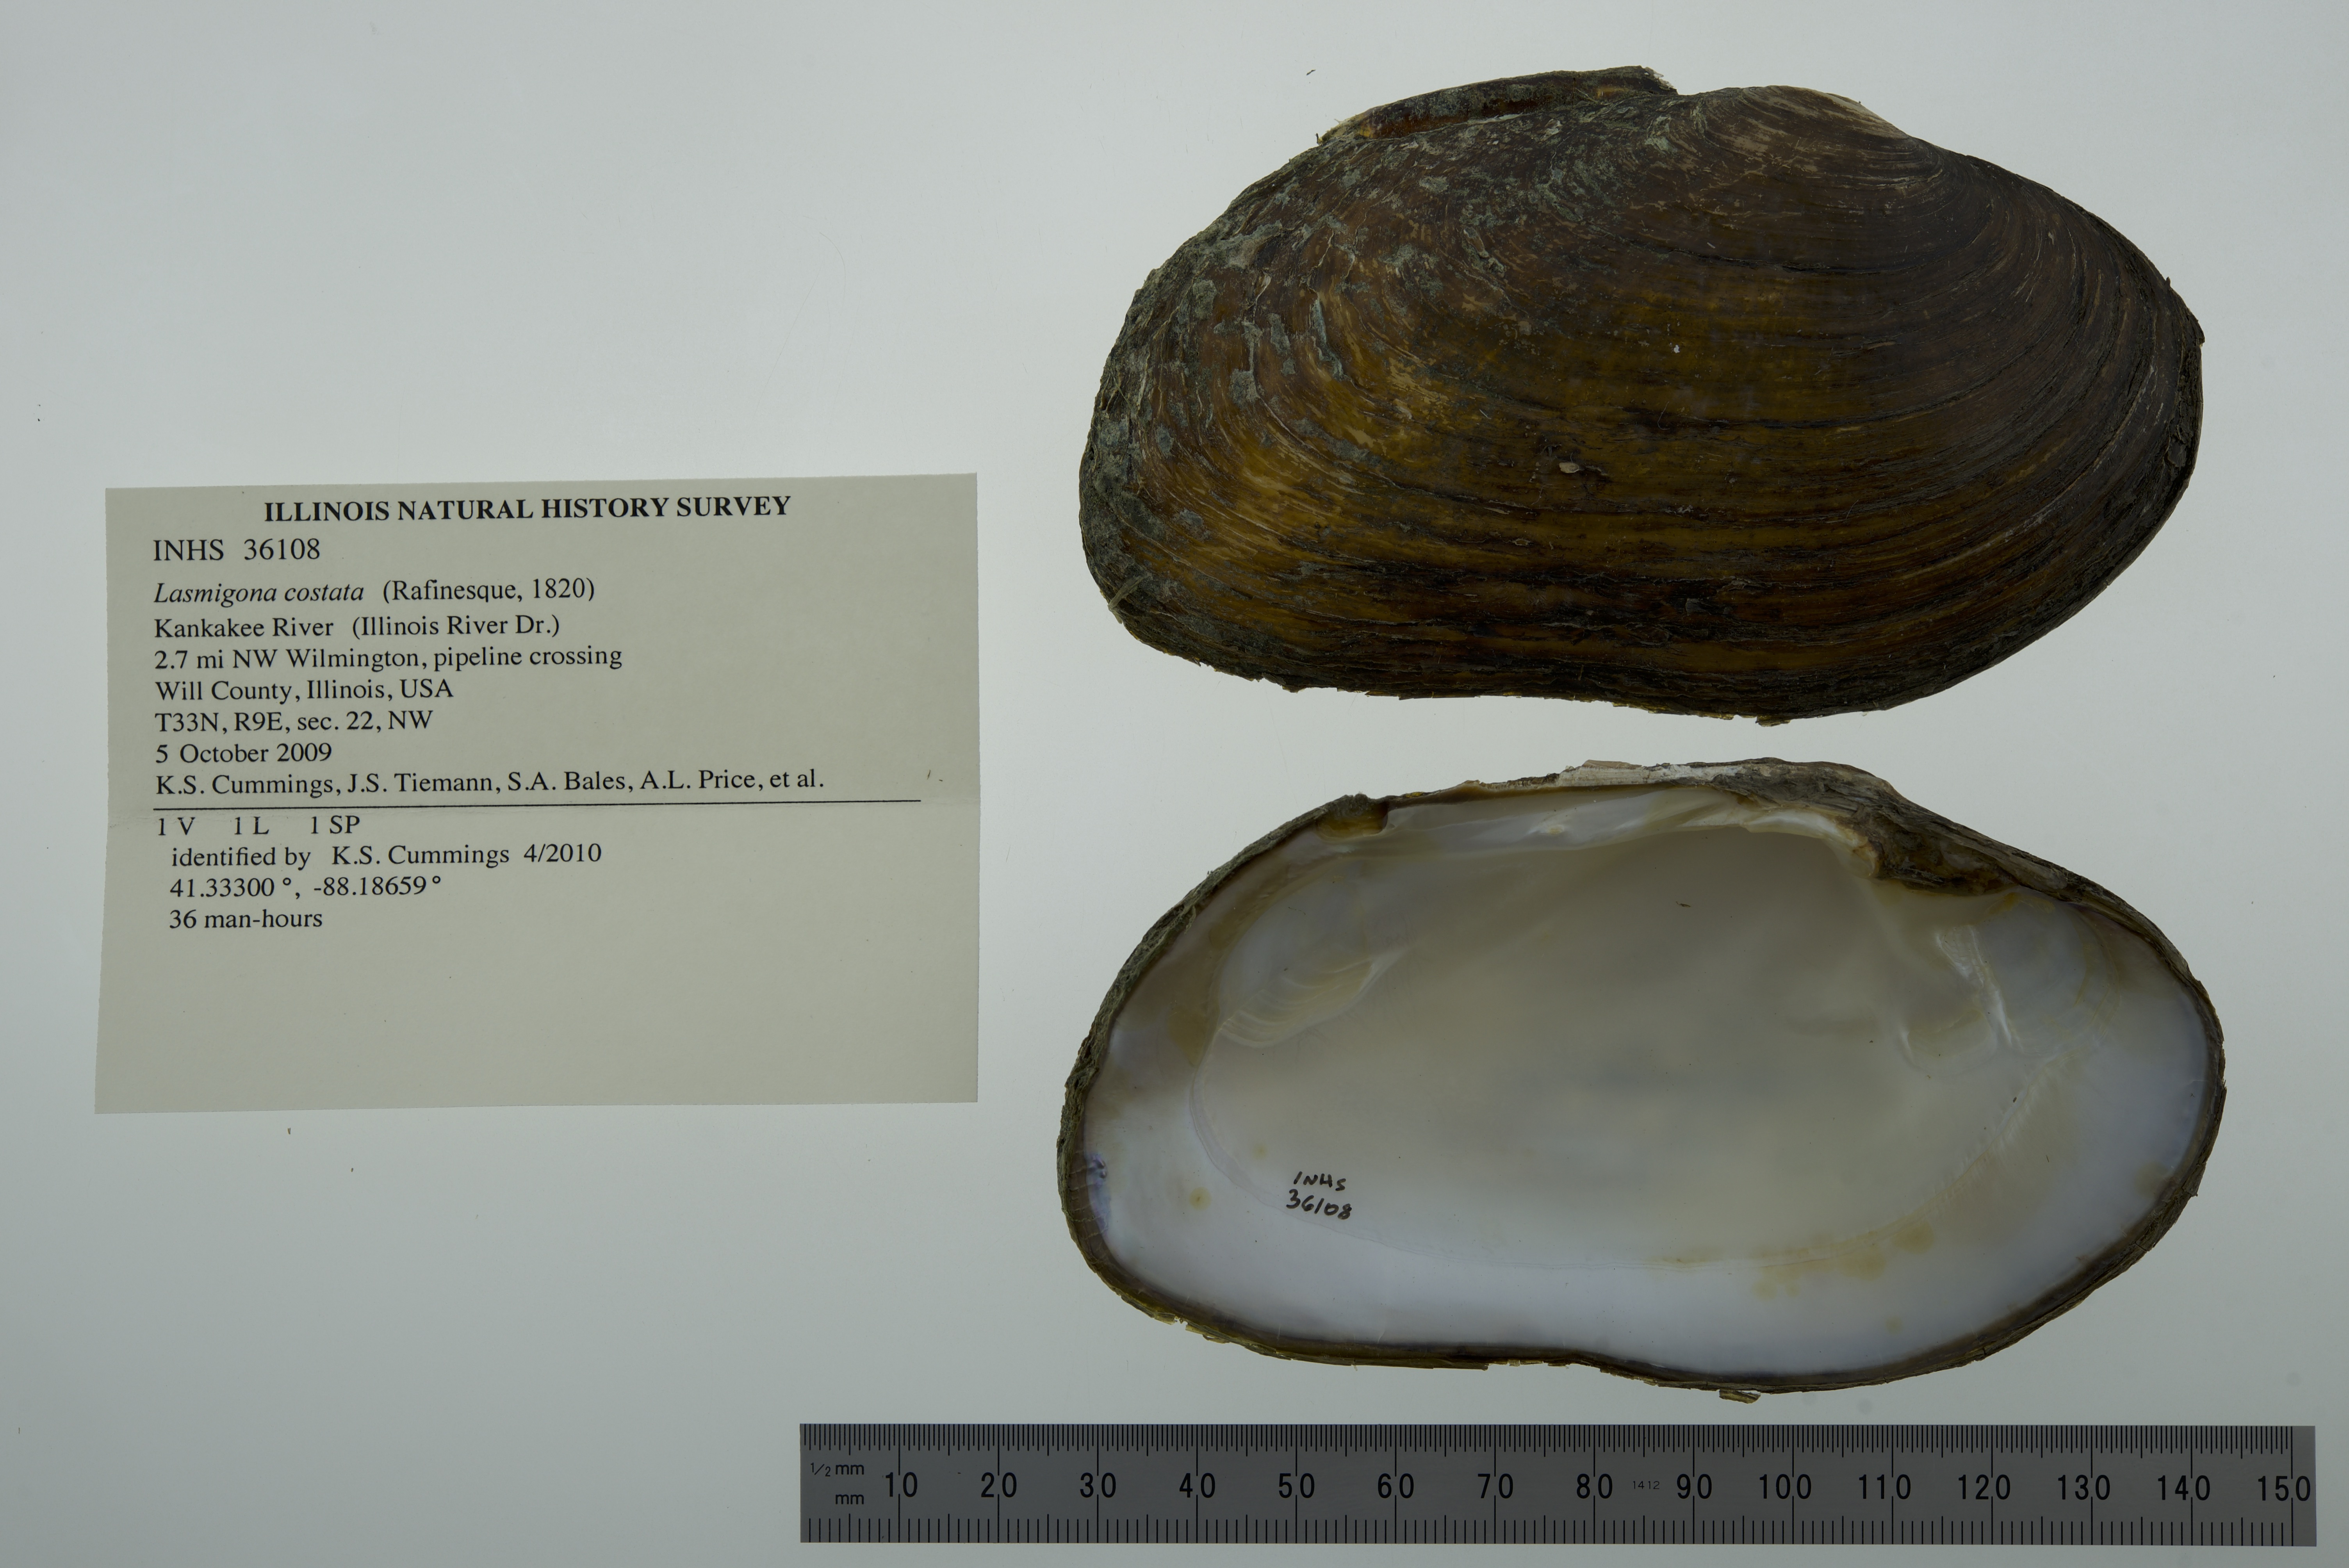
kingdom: Animalia
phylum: Mollusca
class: Bivalvia
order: Unionida
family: Unionidae
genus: Lasmigona
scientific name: Lasmigona costata
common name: Flutedshell
